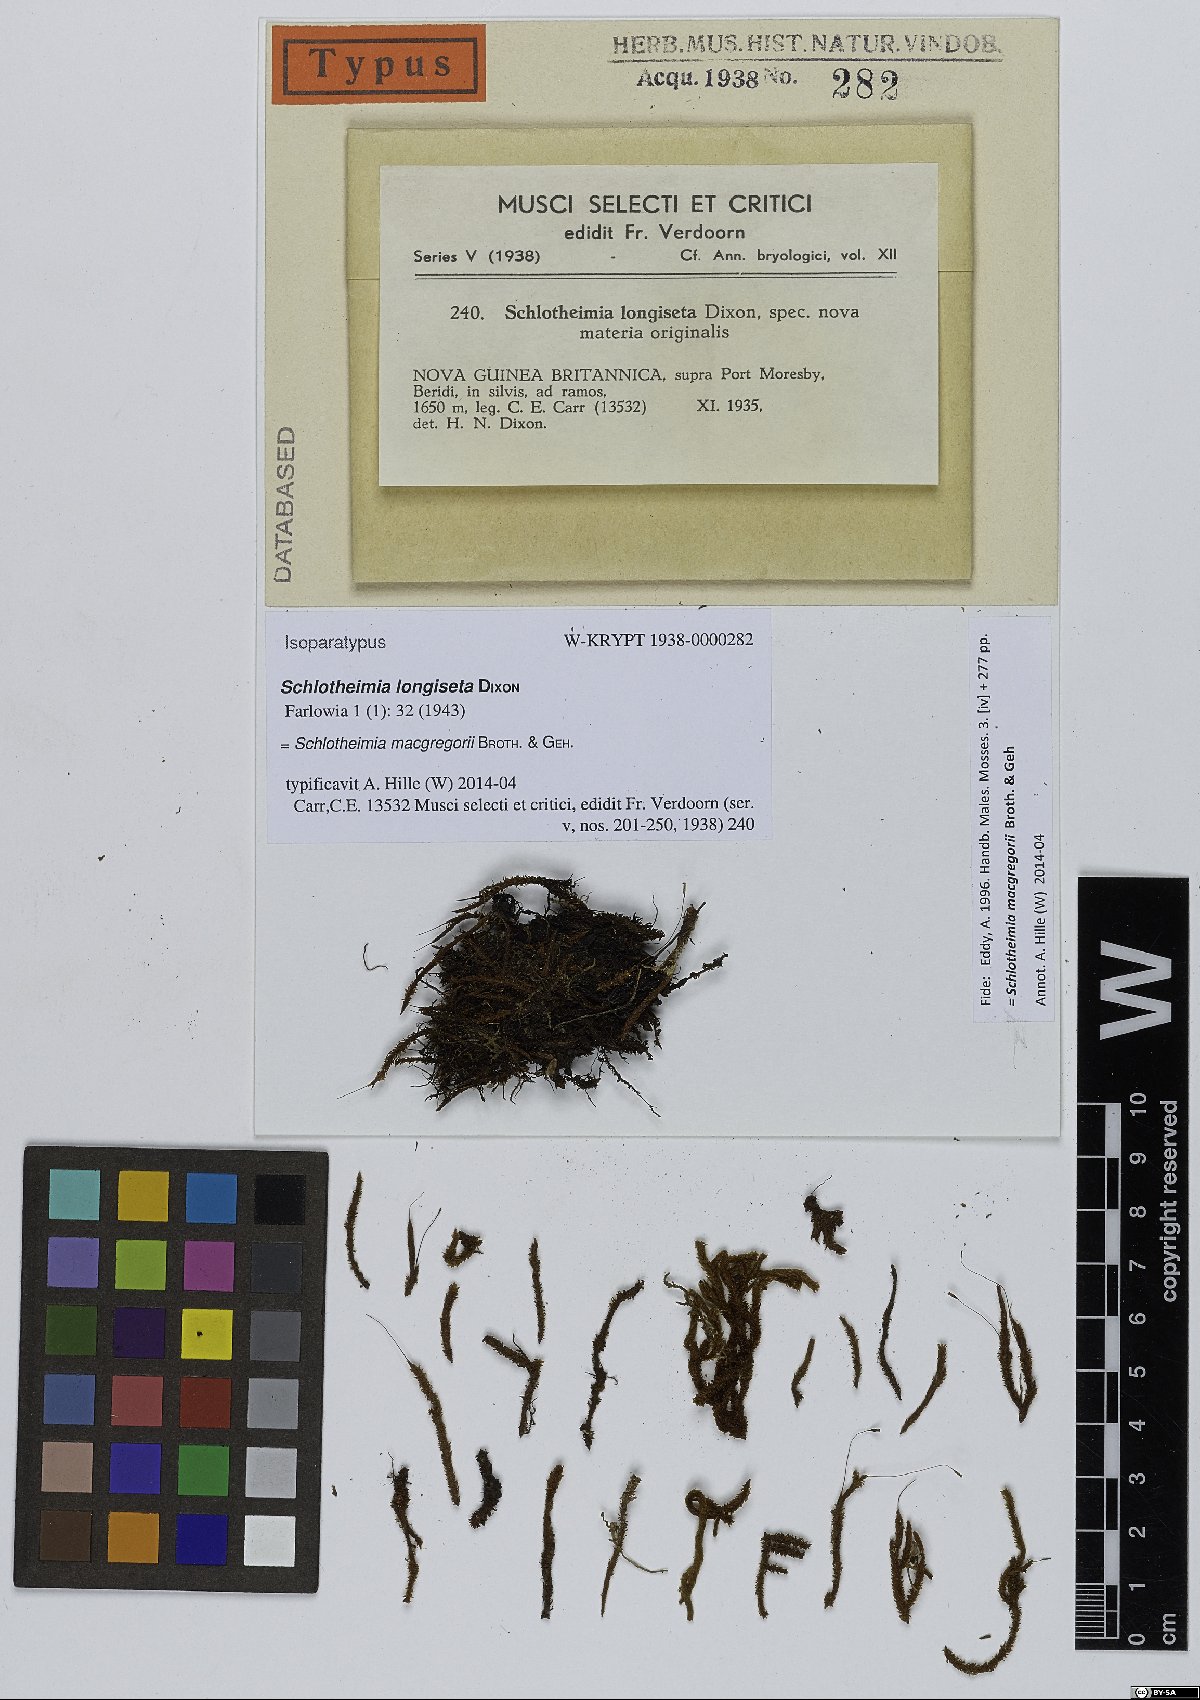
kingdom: Plantae
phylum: Bryophyta
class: Bryopsida
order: Orthotrichales
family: Orthotrichaceae
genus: Schlotheimia
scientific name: Schlotheimia macgregorii
